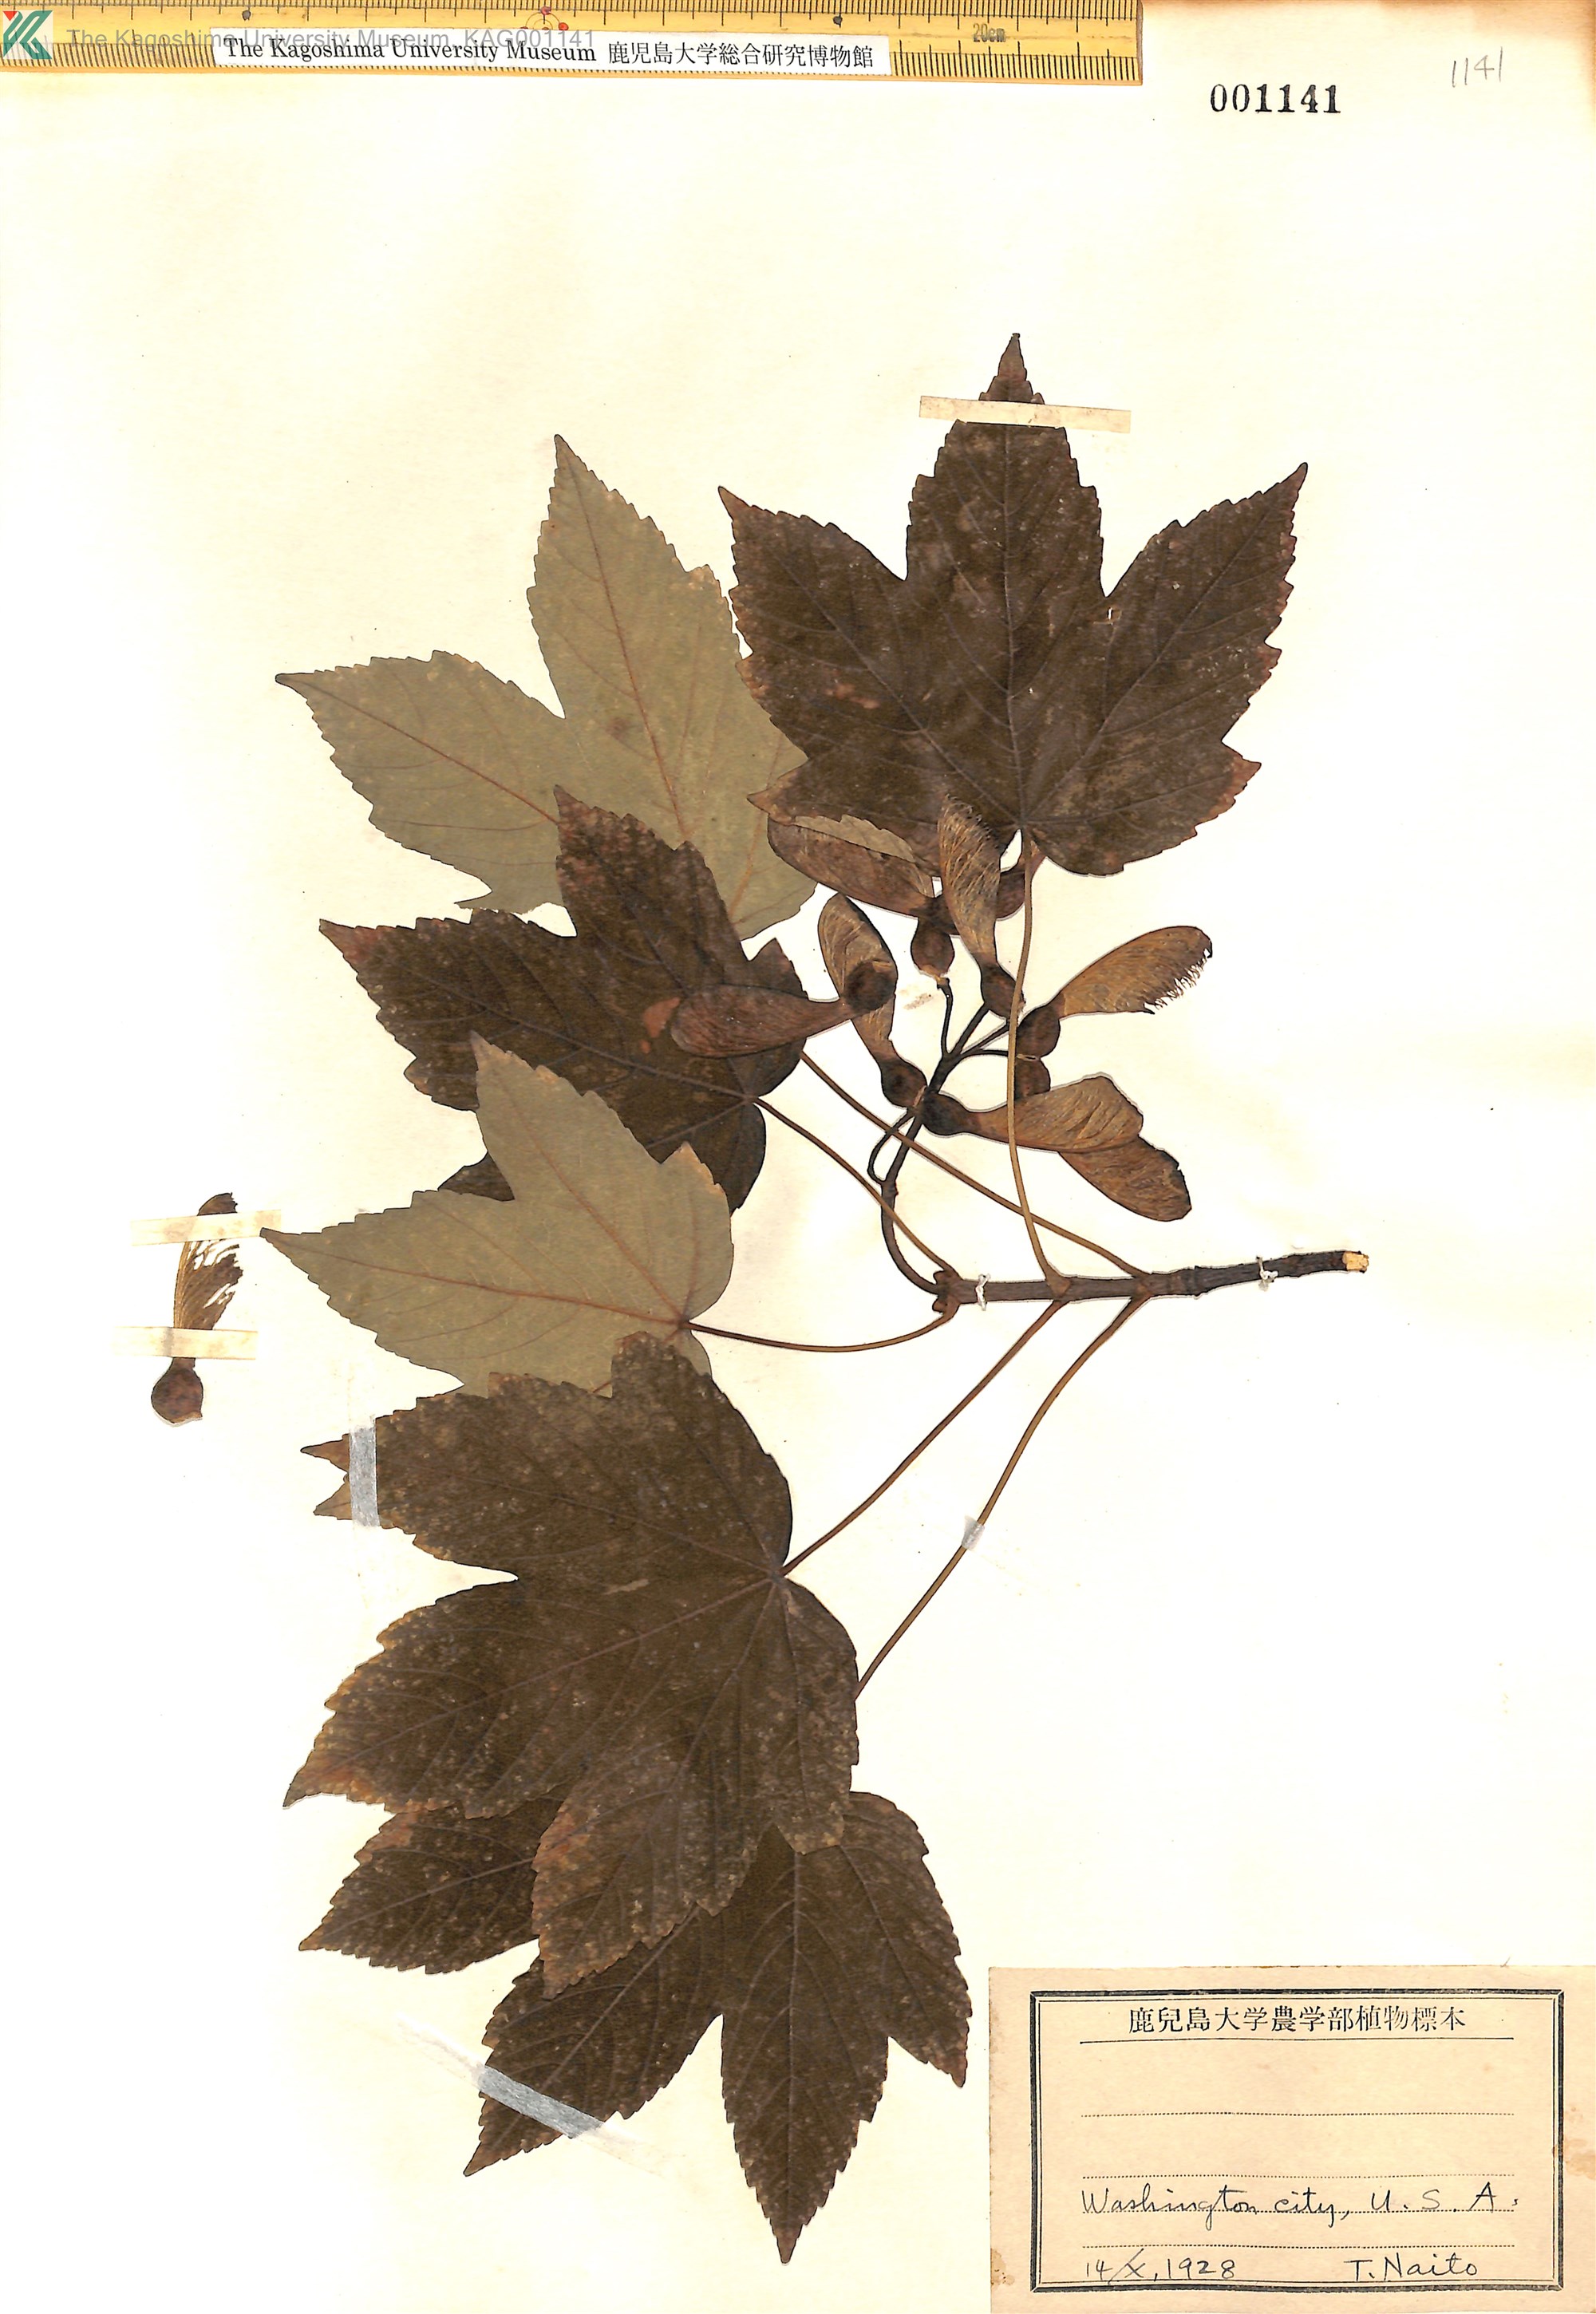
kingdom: Plantae
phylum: Tracheophyta
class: Magnoliopsida
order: Sapindales
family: Sapindaceae
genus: Acer
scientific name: Acer
